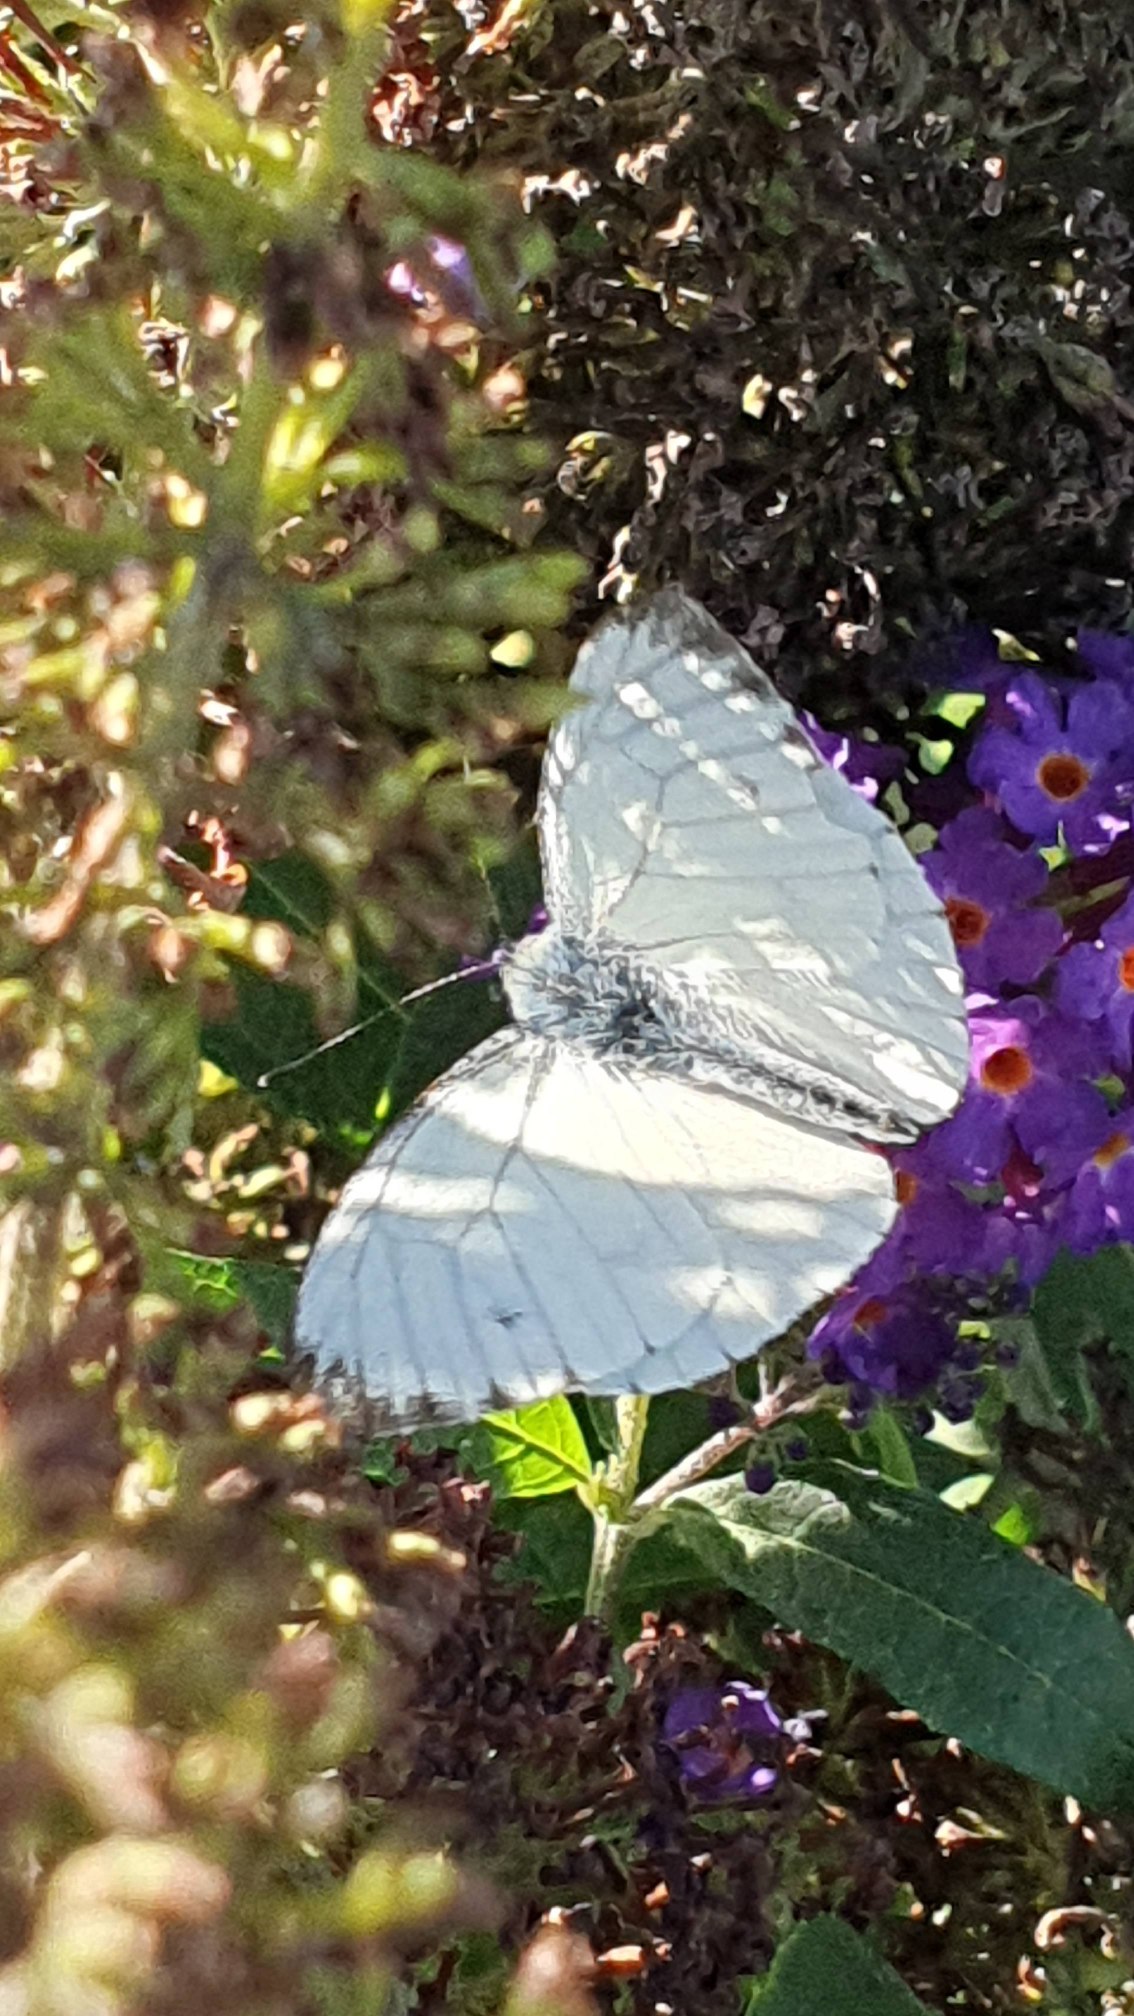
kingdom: Animalia
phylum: Arthropoda
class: Insecta
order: Lepidoptera
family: Pieridae
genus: Pieris
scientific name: Pieris napi
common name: Grønåret kålsommerfugl
